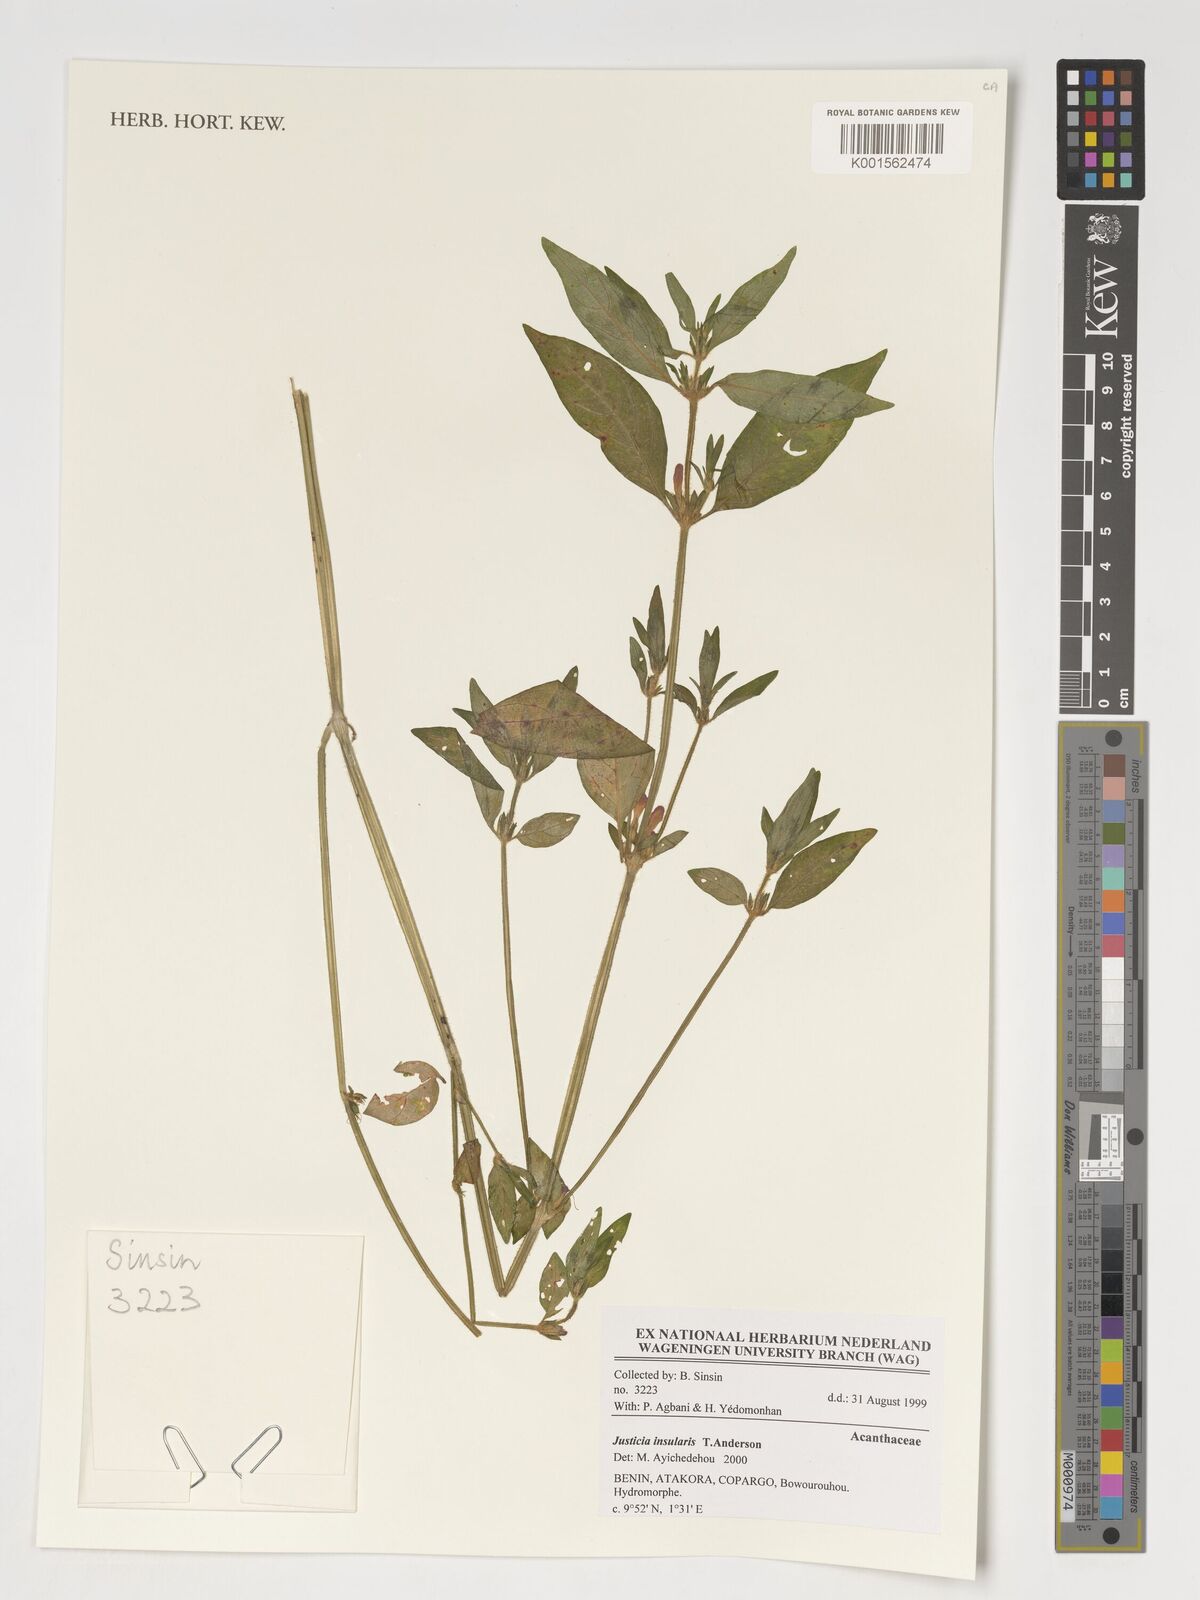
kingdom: Plantae
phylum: Tracheophyta
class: Magnoliopsida
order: Lamiales
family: Acanthaceae
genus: Justicia
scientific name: Justicia insularis
